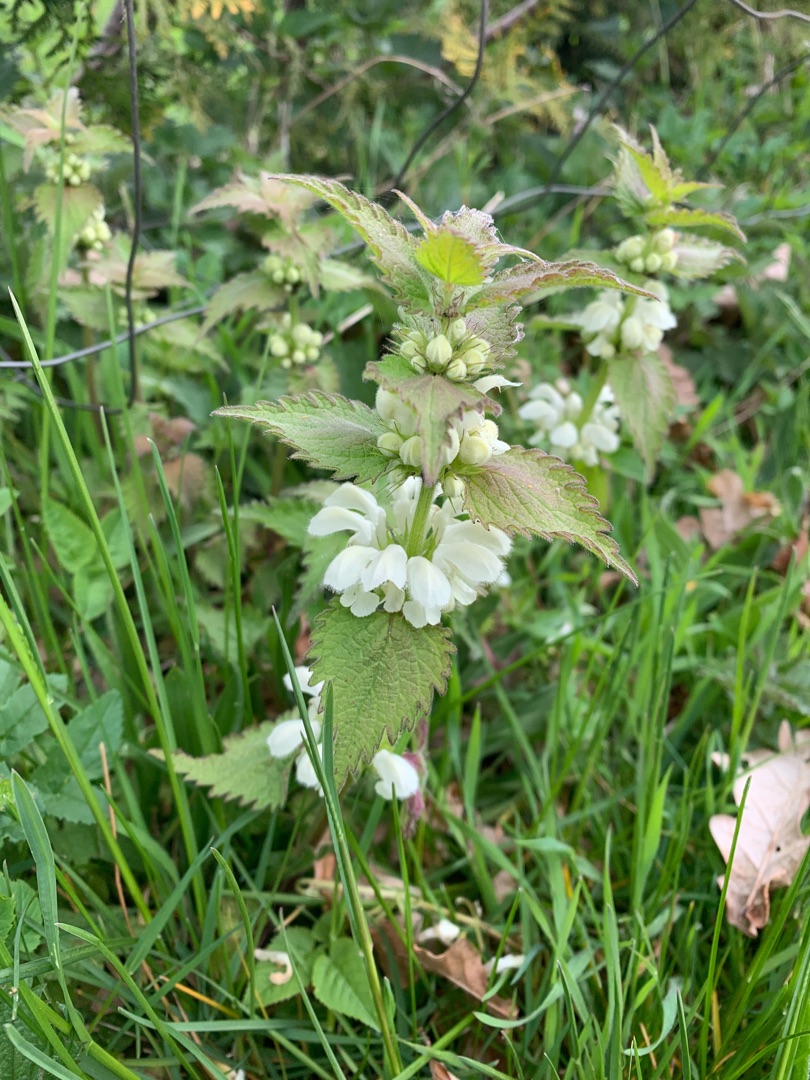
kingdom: Plantae
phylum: Tracheophyta
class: Magnoliopsida
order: Lamiales
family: Lamiaceae
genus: Lamium
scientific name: Lamium album
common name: Døvnælde
